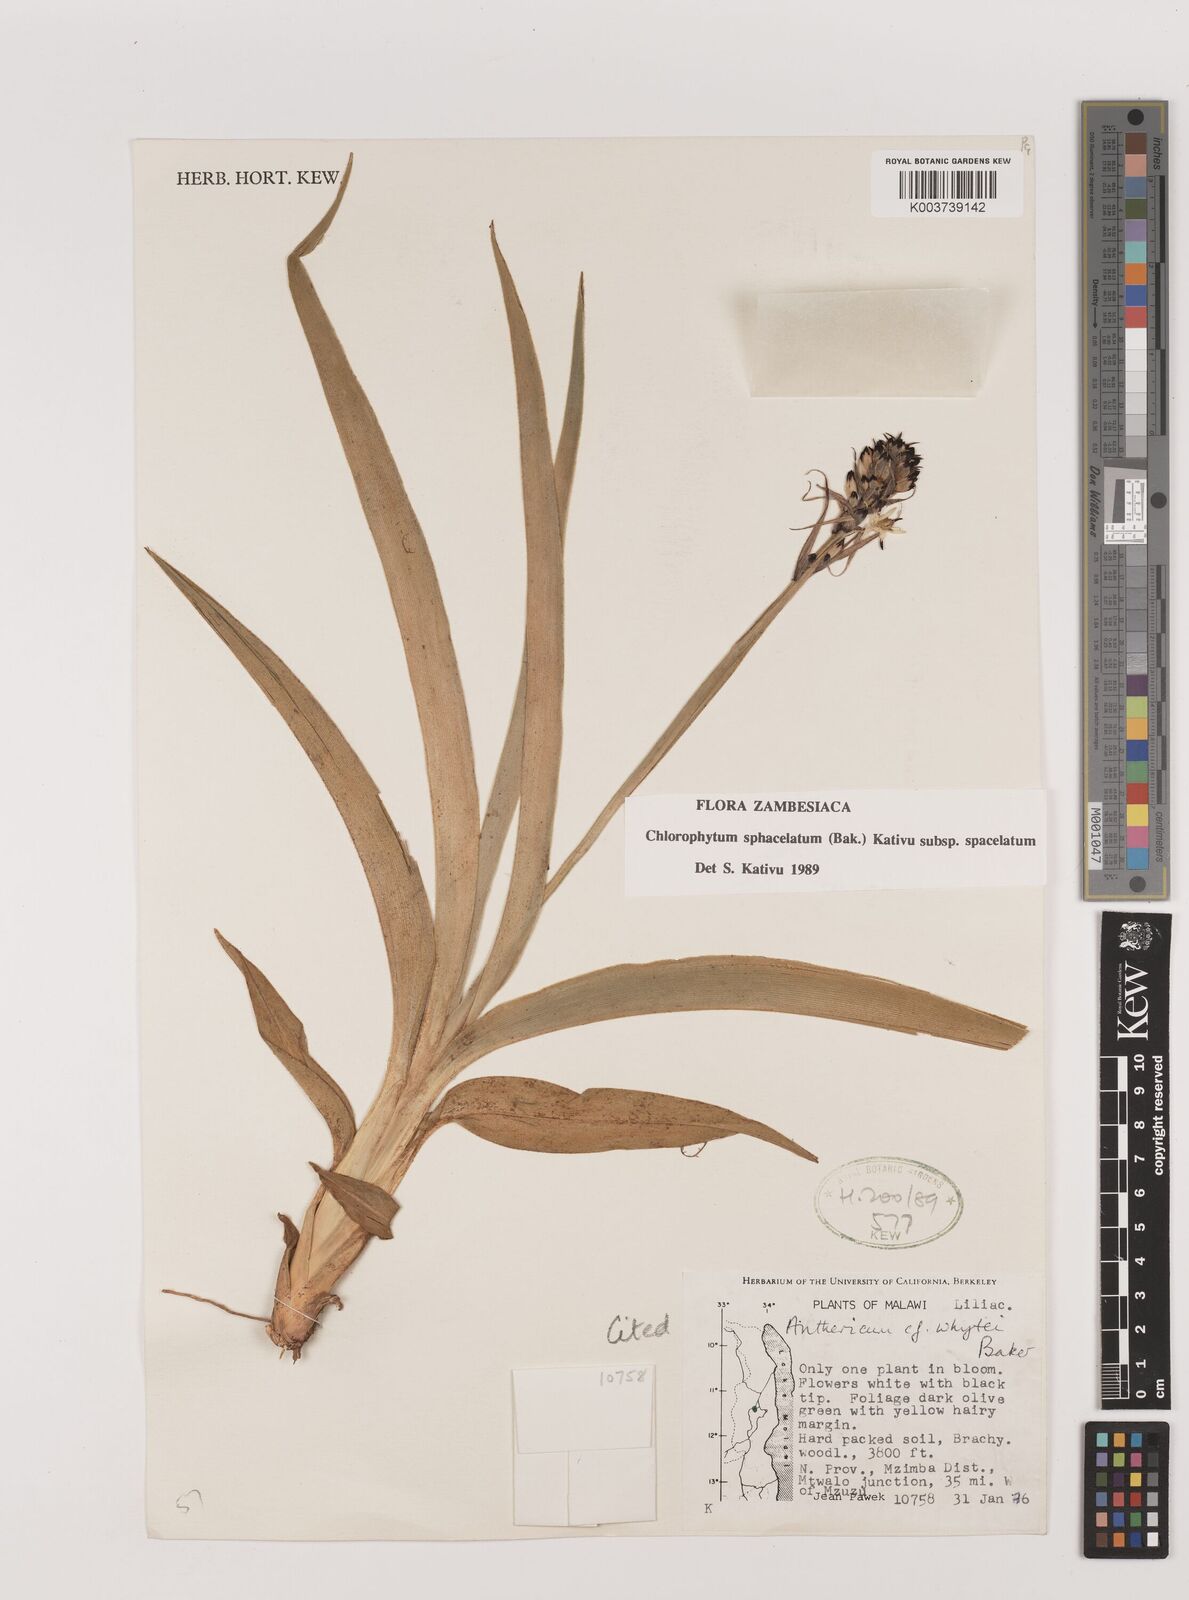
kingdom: Plantae
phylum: Tracheophyta
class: Liliopsida
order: Asparagales
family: Asparagaceae
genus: Chlorophytum
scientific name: Chlorophytum sphacelatum
